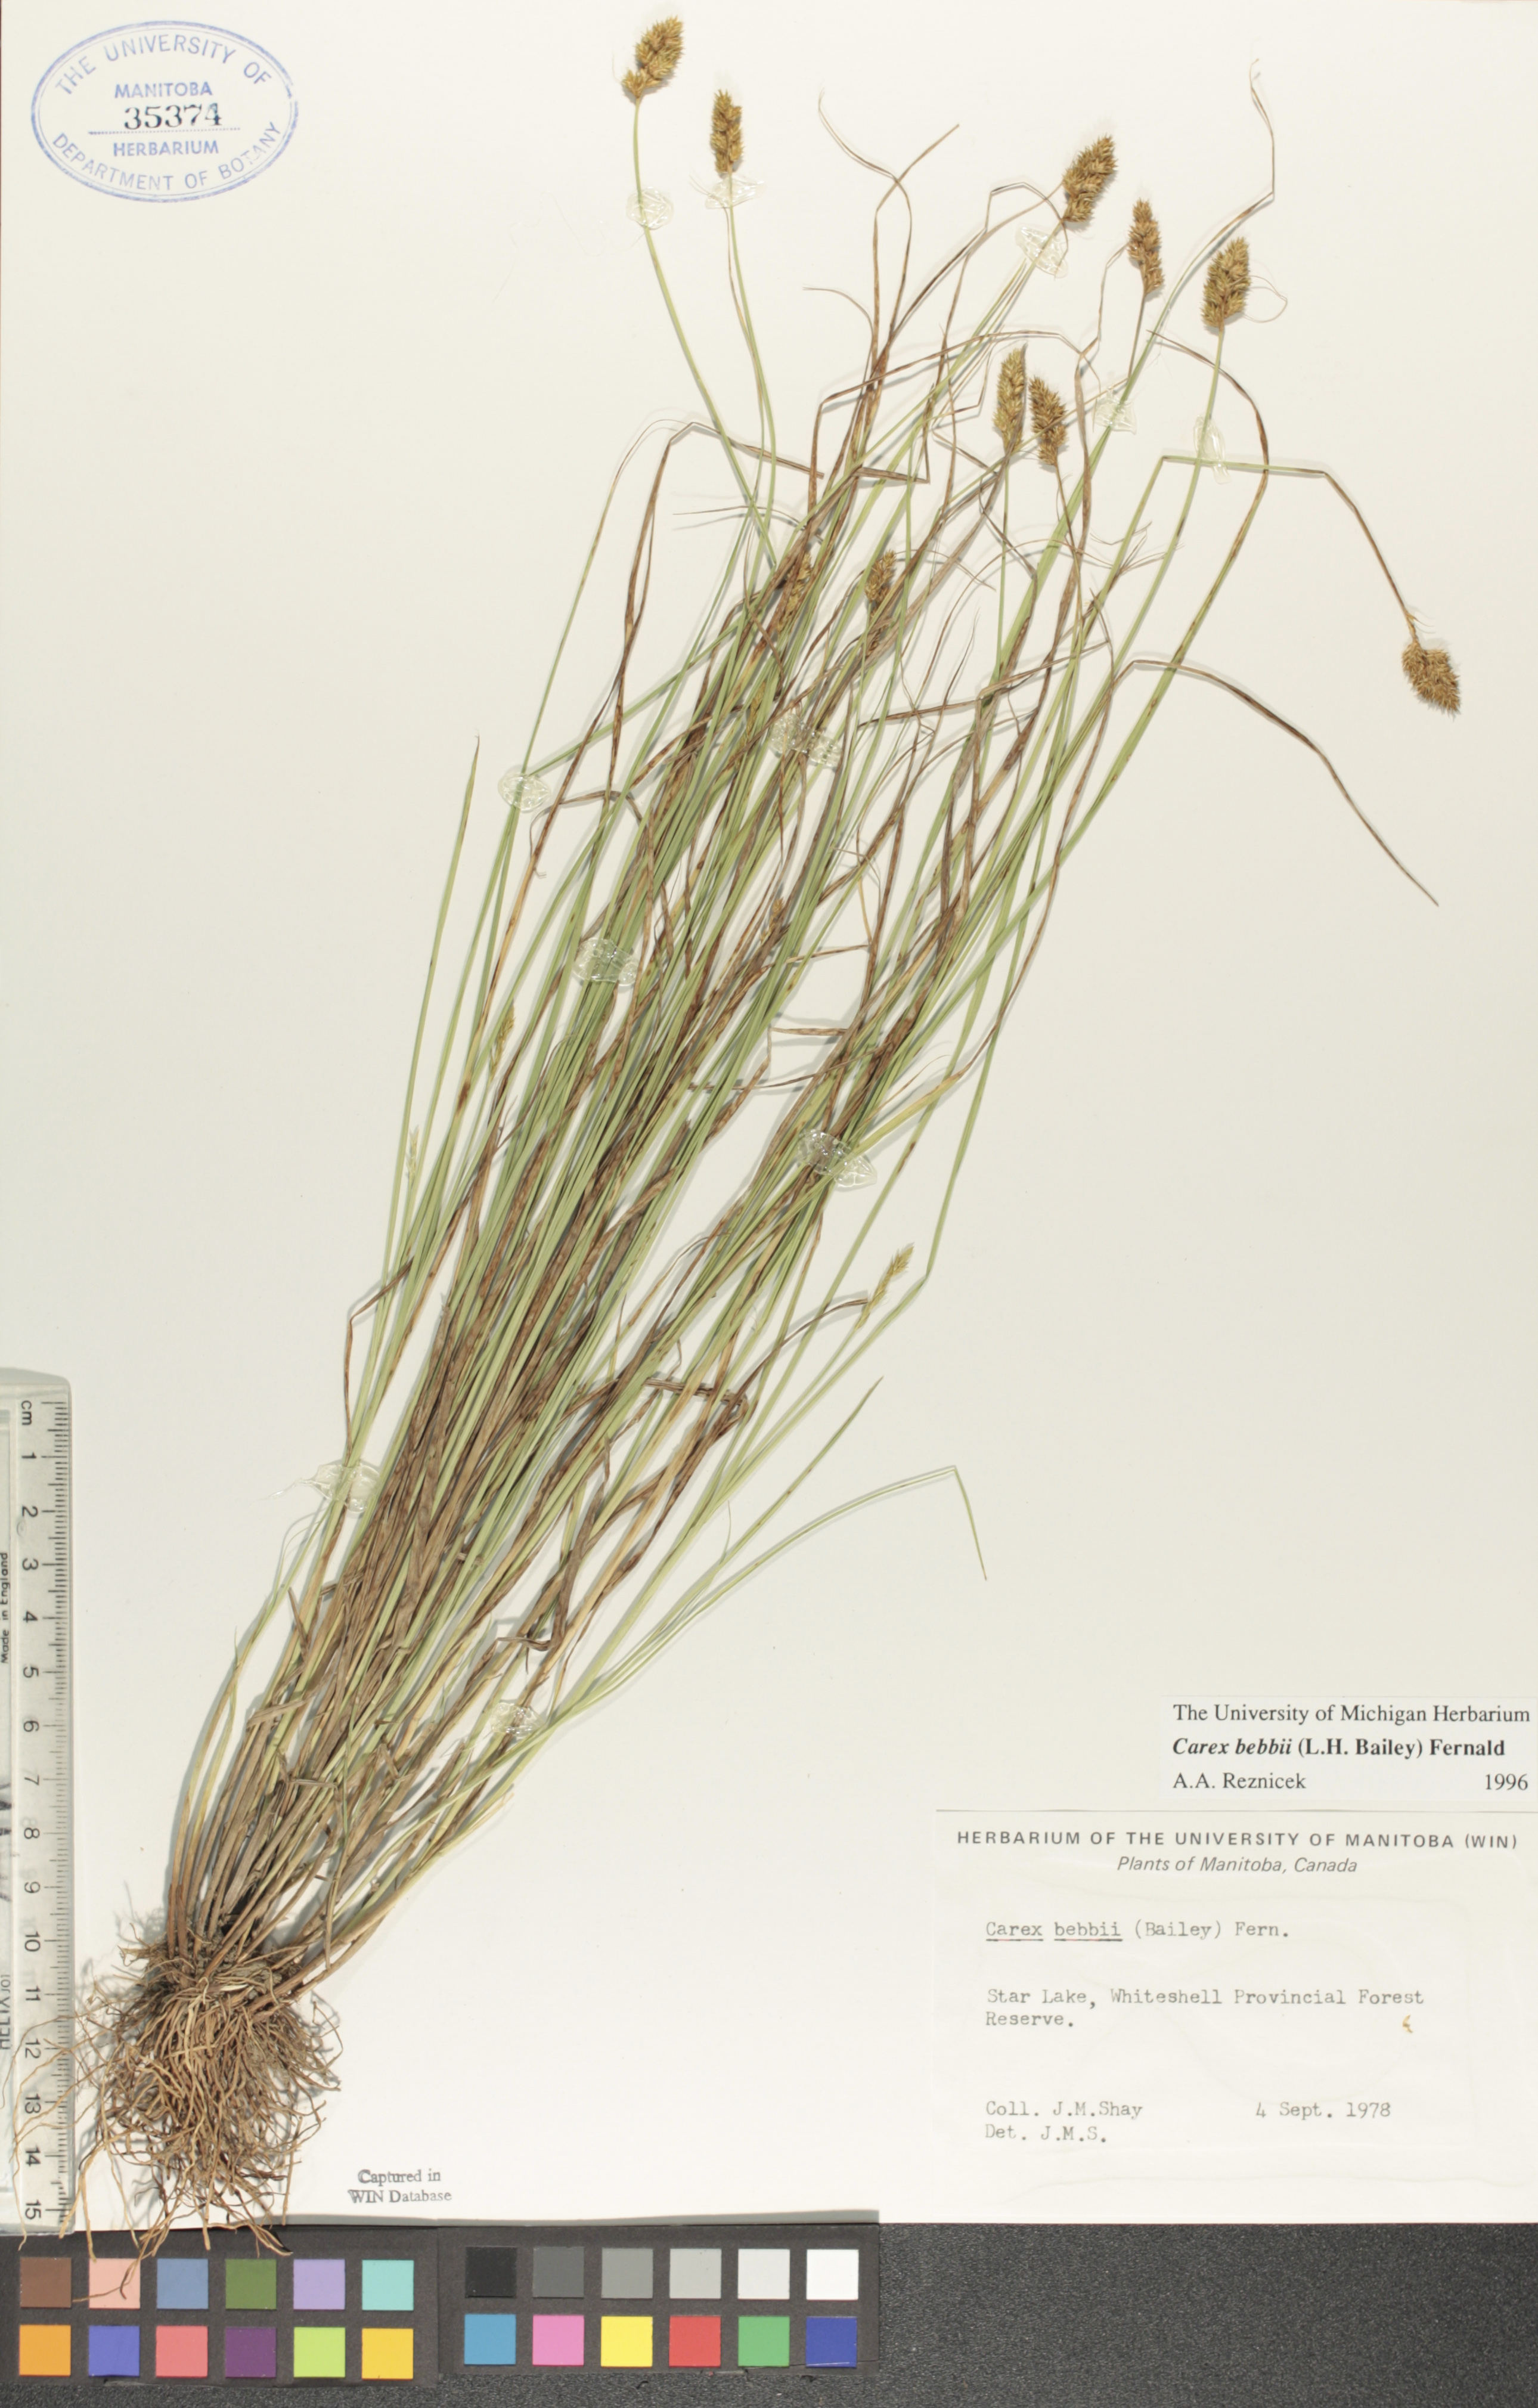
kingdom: Plantae
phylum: Tracheophyta
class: Liliopsida
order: Poales
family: Cyperaceae
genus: Carex
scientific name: Carex bebbii
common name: Bebb's sedge
